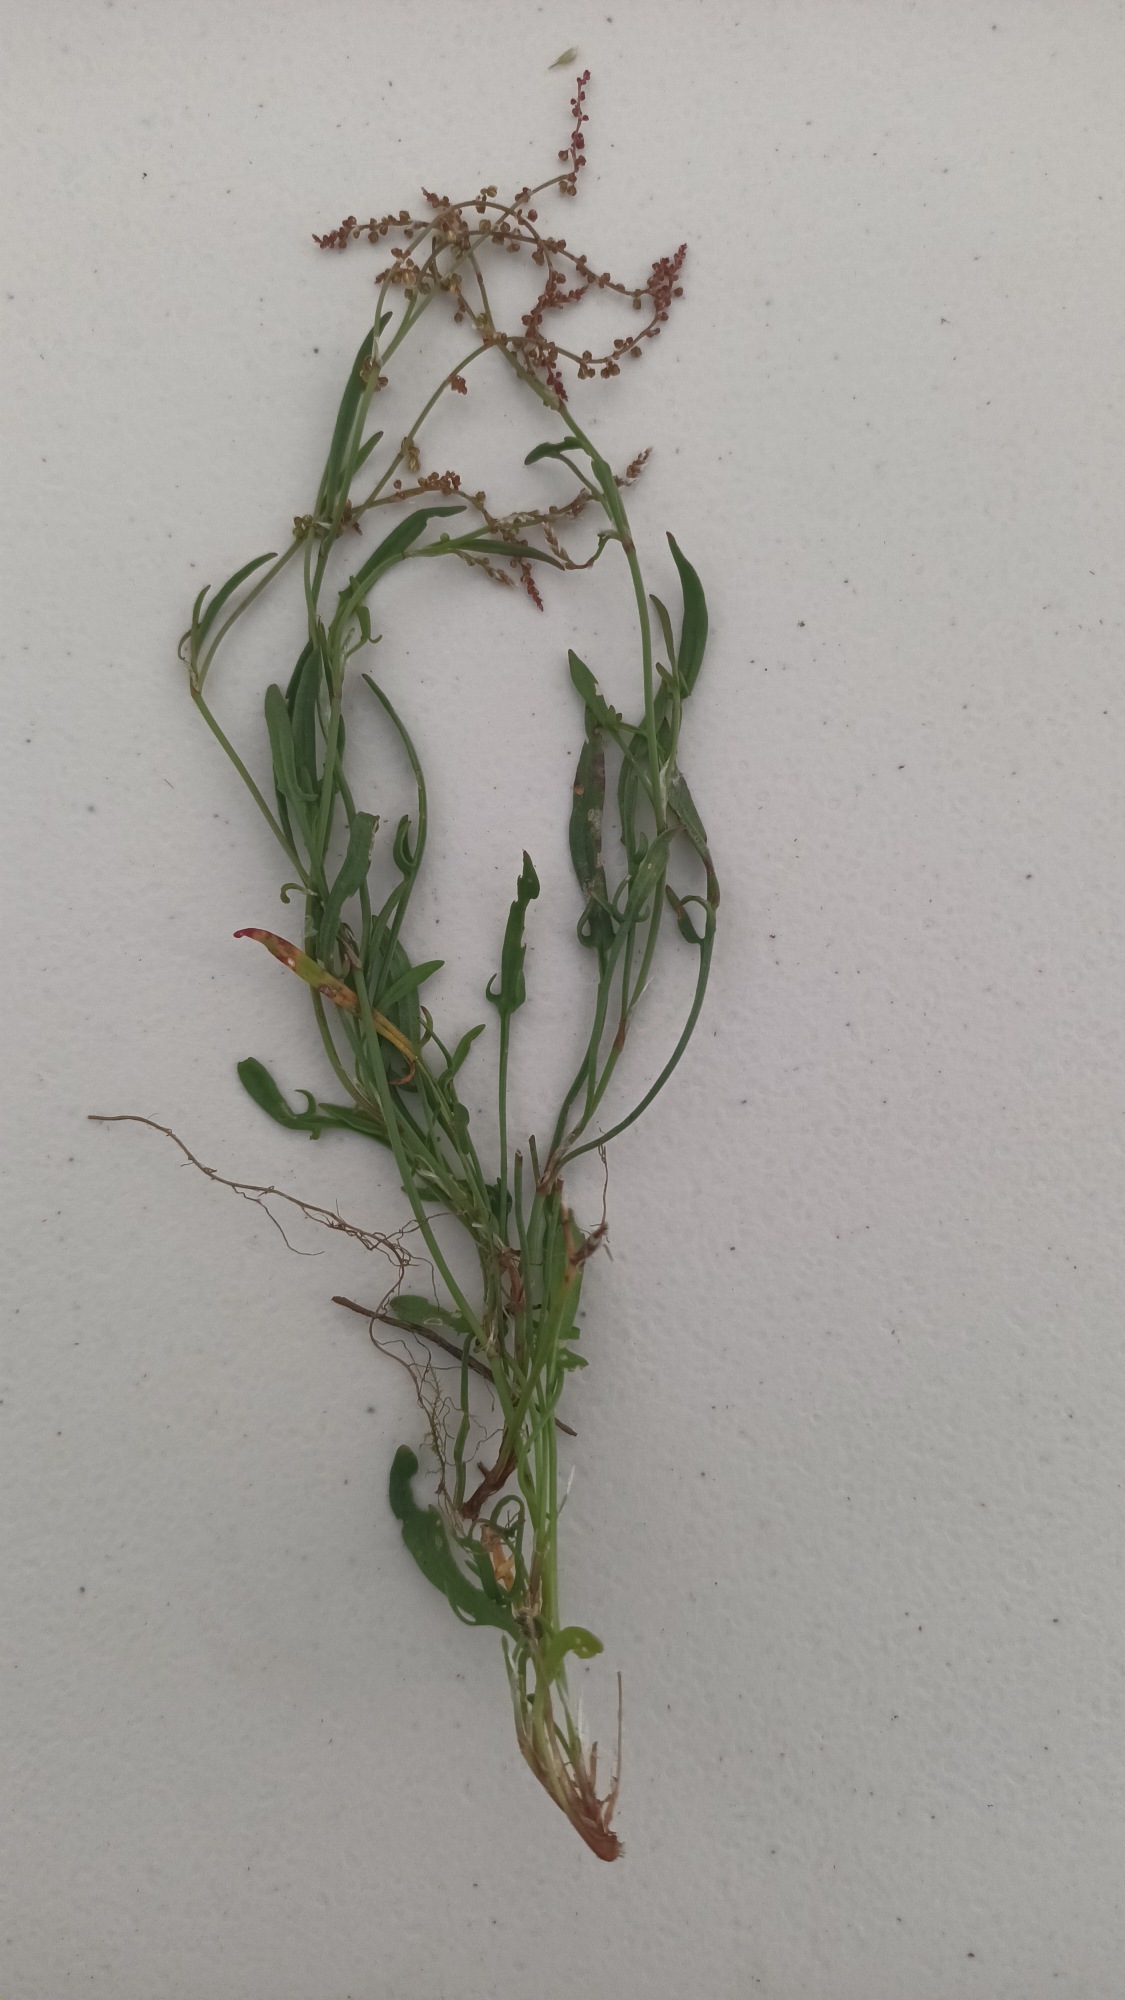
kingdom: Plantae
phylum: Tracheophyta
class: Magnoliopsida
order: Caryophyllales
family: Polygonaceae
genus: Rumex
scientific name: Rumex acetosella
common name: Rødknæ
